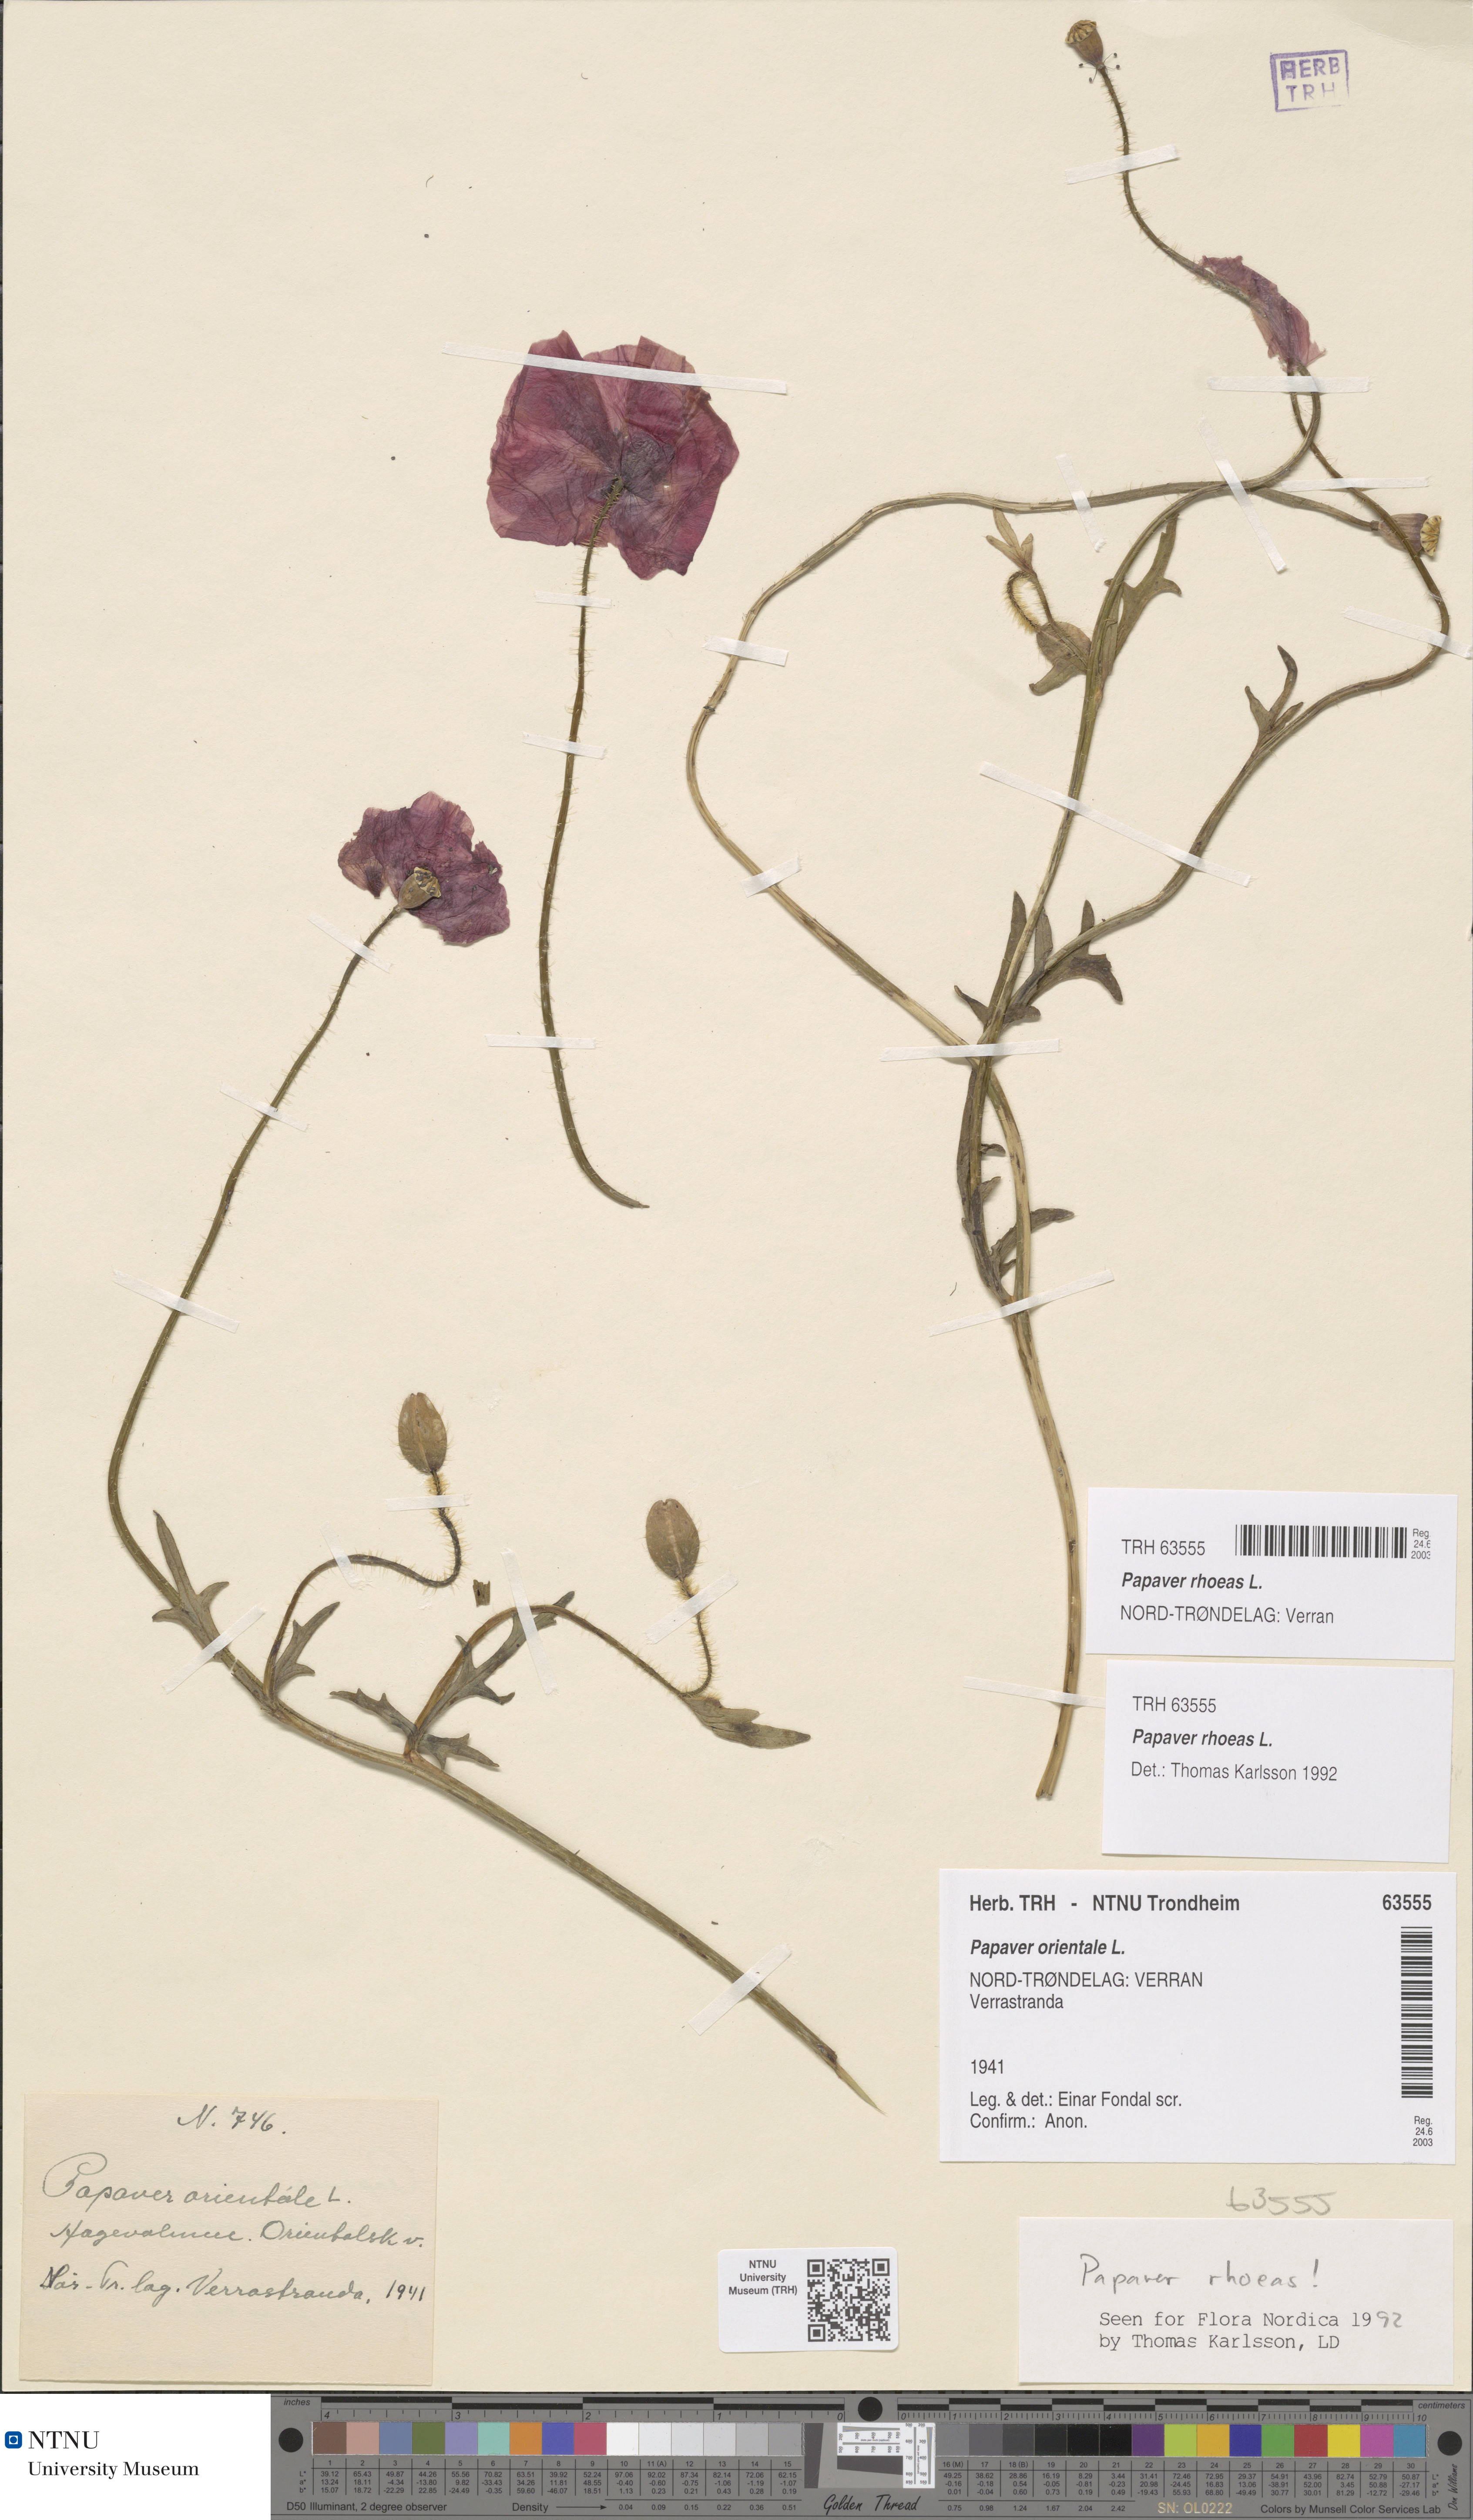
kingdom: Plantae
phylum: Tracheophyta
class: Magnoliopsida
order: Ranunculales
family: Papaveraceae
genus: Papaver
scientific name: Papaver rhoeas
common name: Corn poppy
